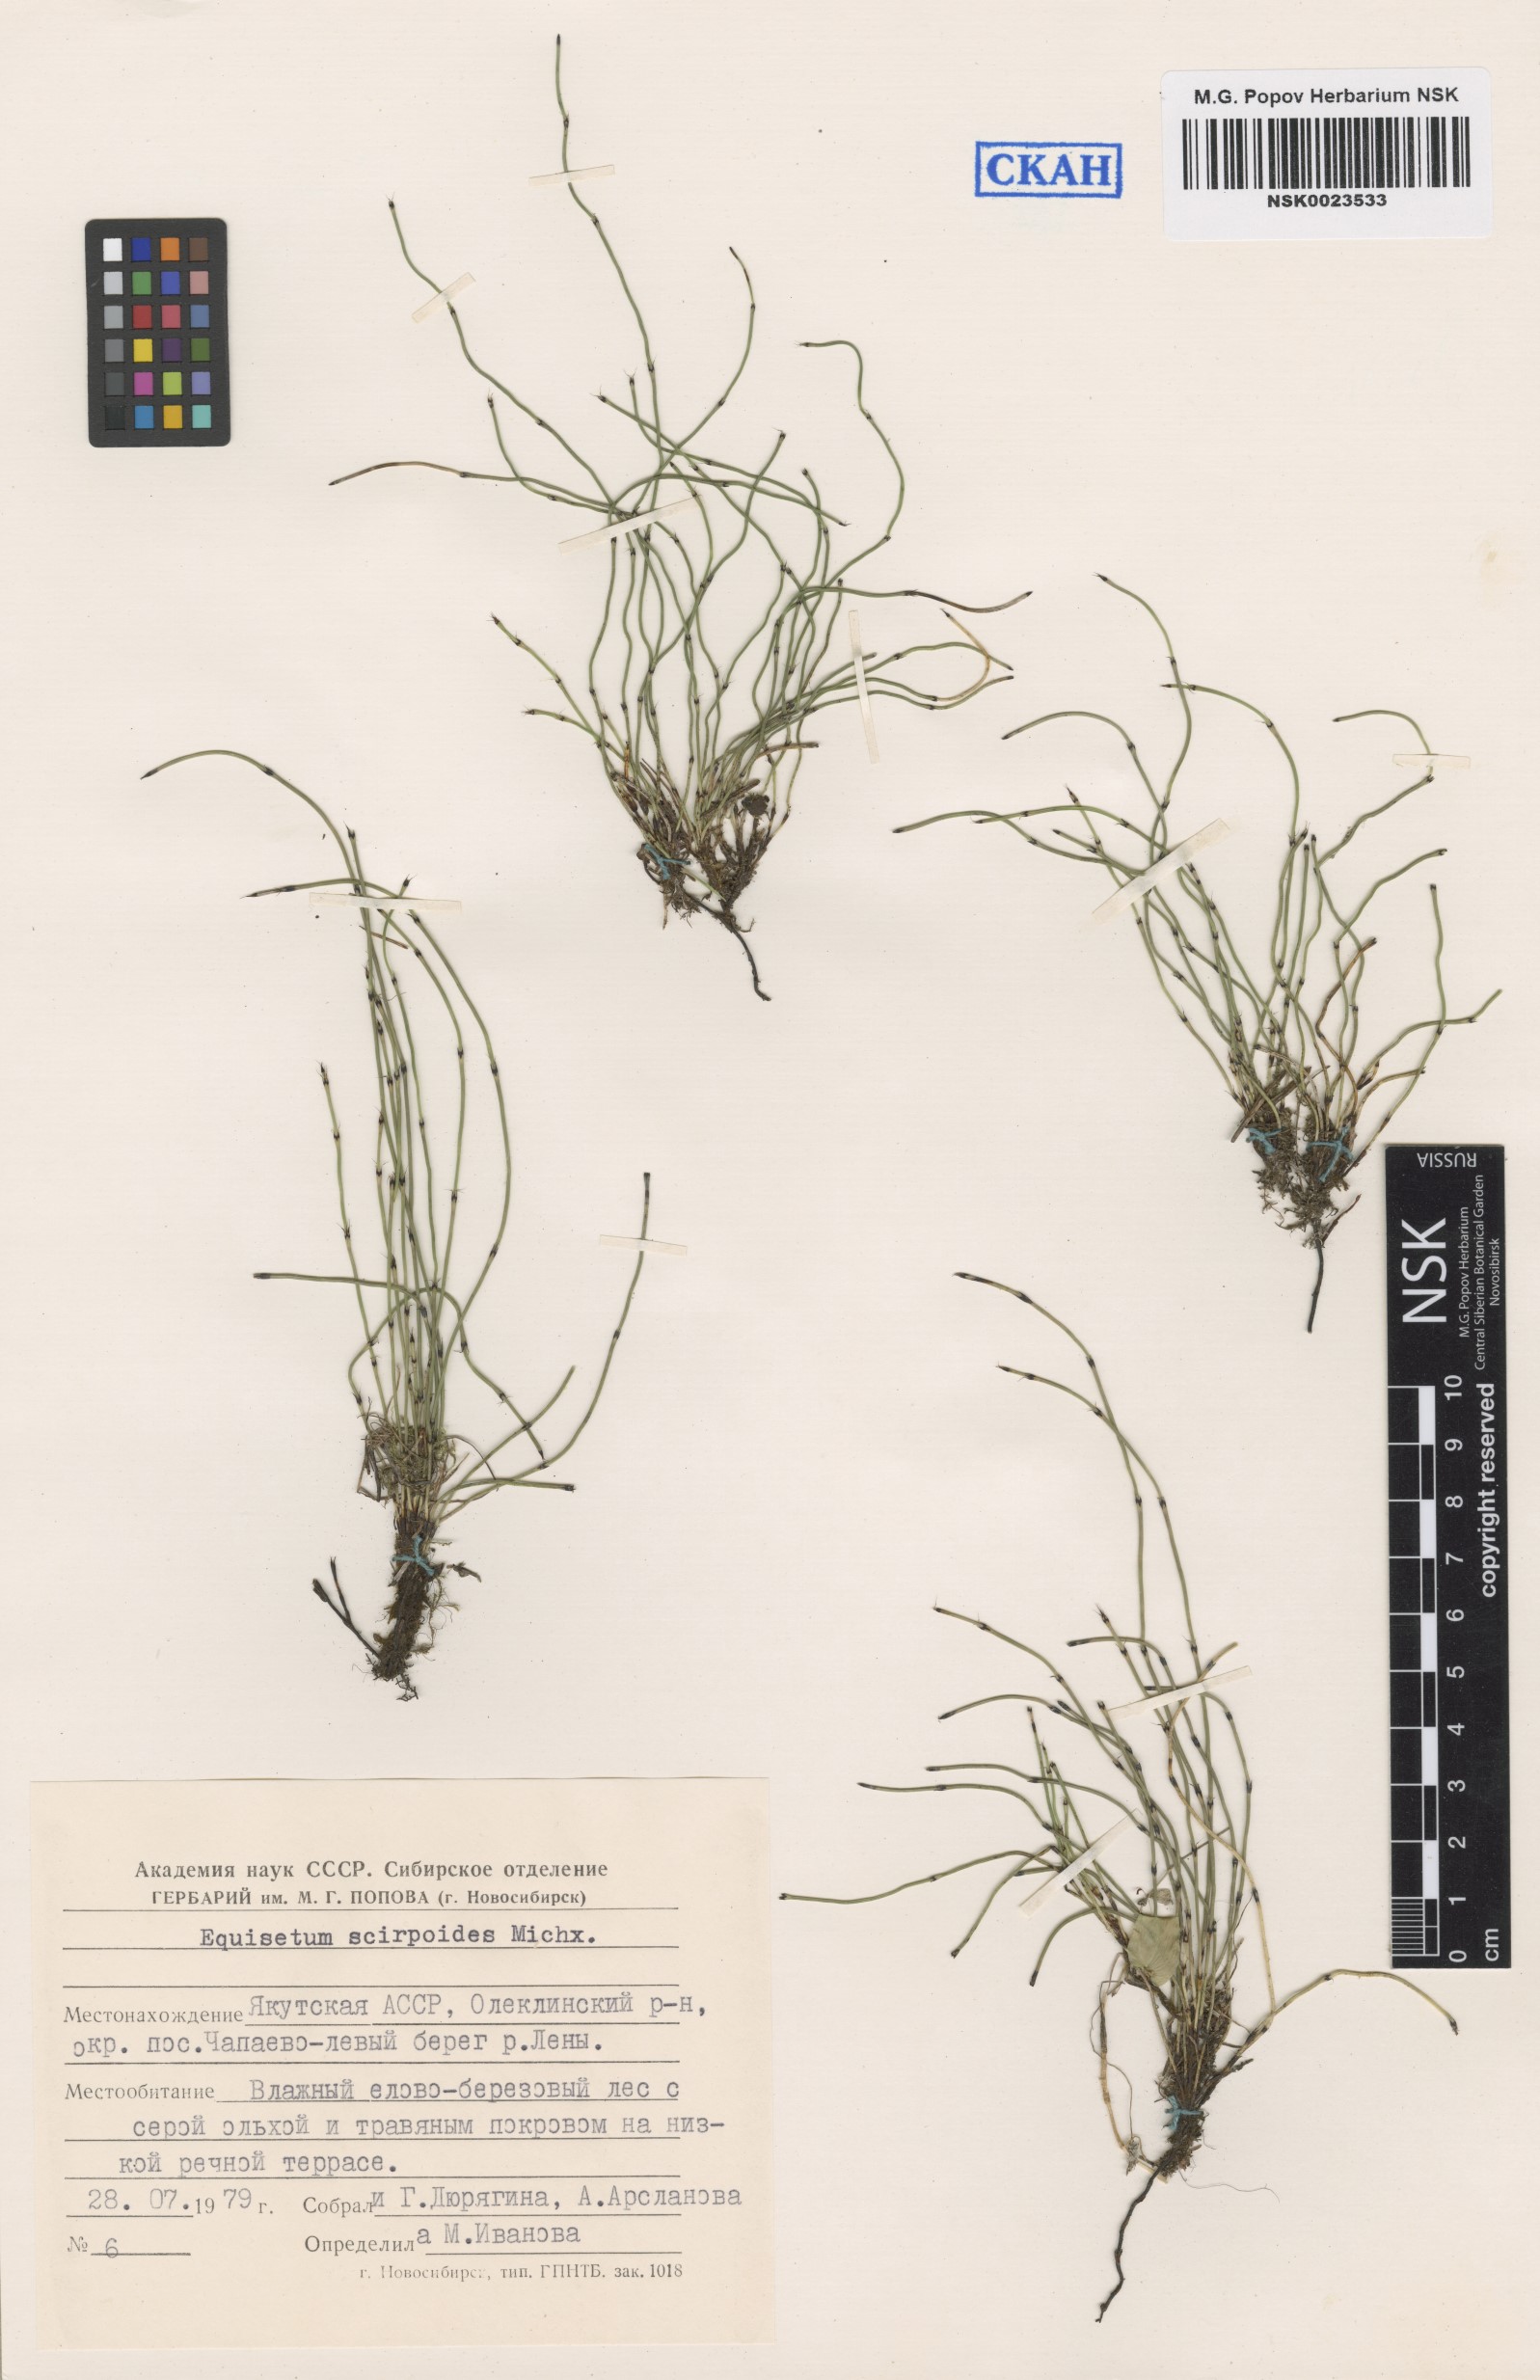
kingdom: Plantae
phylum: Tracheophyta
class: Polypodiopsida
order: Equisetales
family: Equisetaceae
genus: Equisetum
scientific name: Equisetum scirpoides
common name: Delicate horsetail
